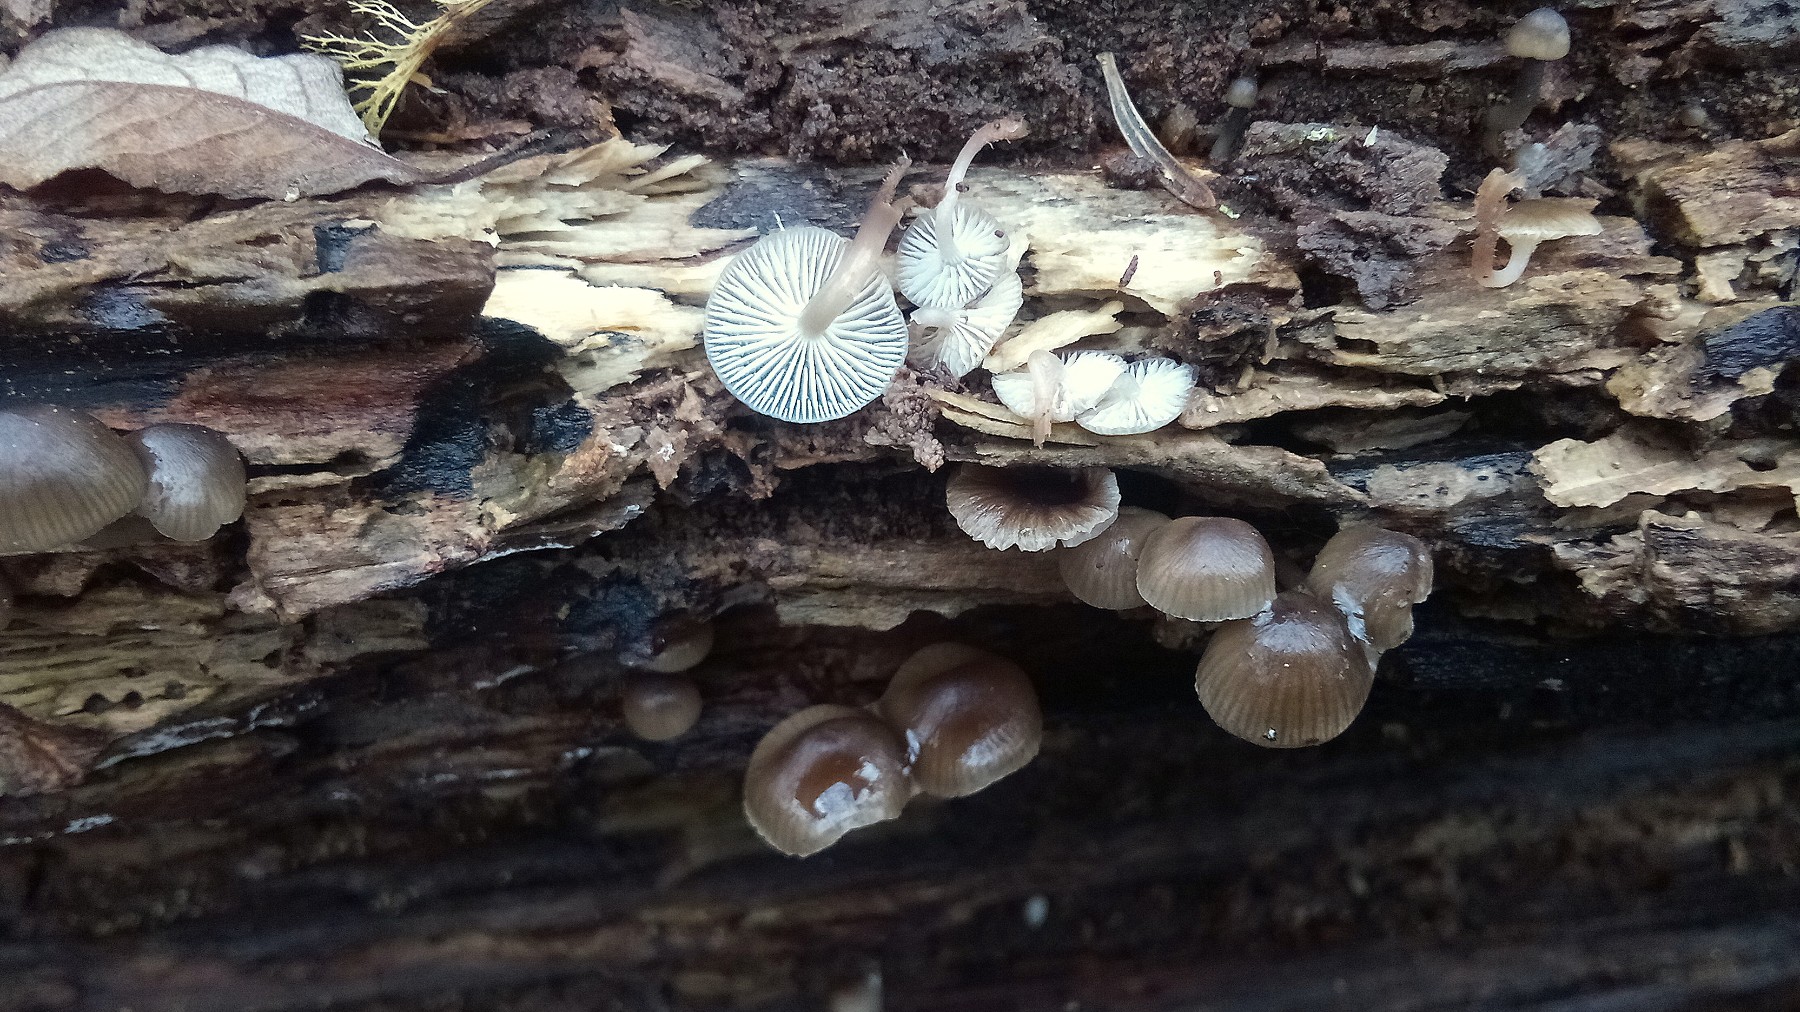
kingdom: Fungi
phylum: Basidiomycota
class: Agaricomycetes
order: Agaricales
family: Mycenaceae
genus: Mycena
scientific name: Mycena tintinnabulum
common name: vinter-huesvamp
